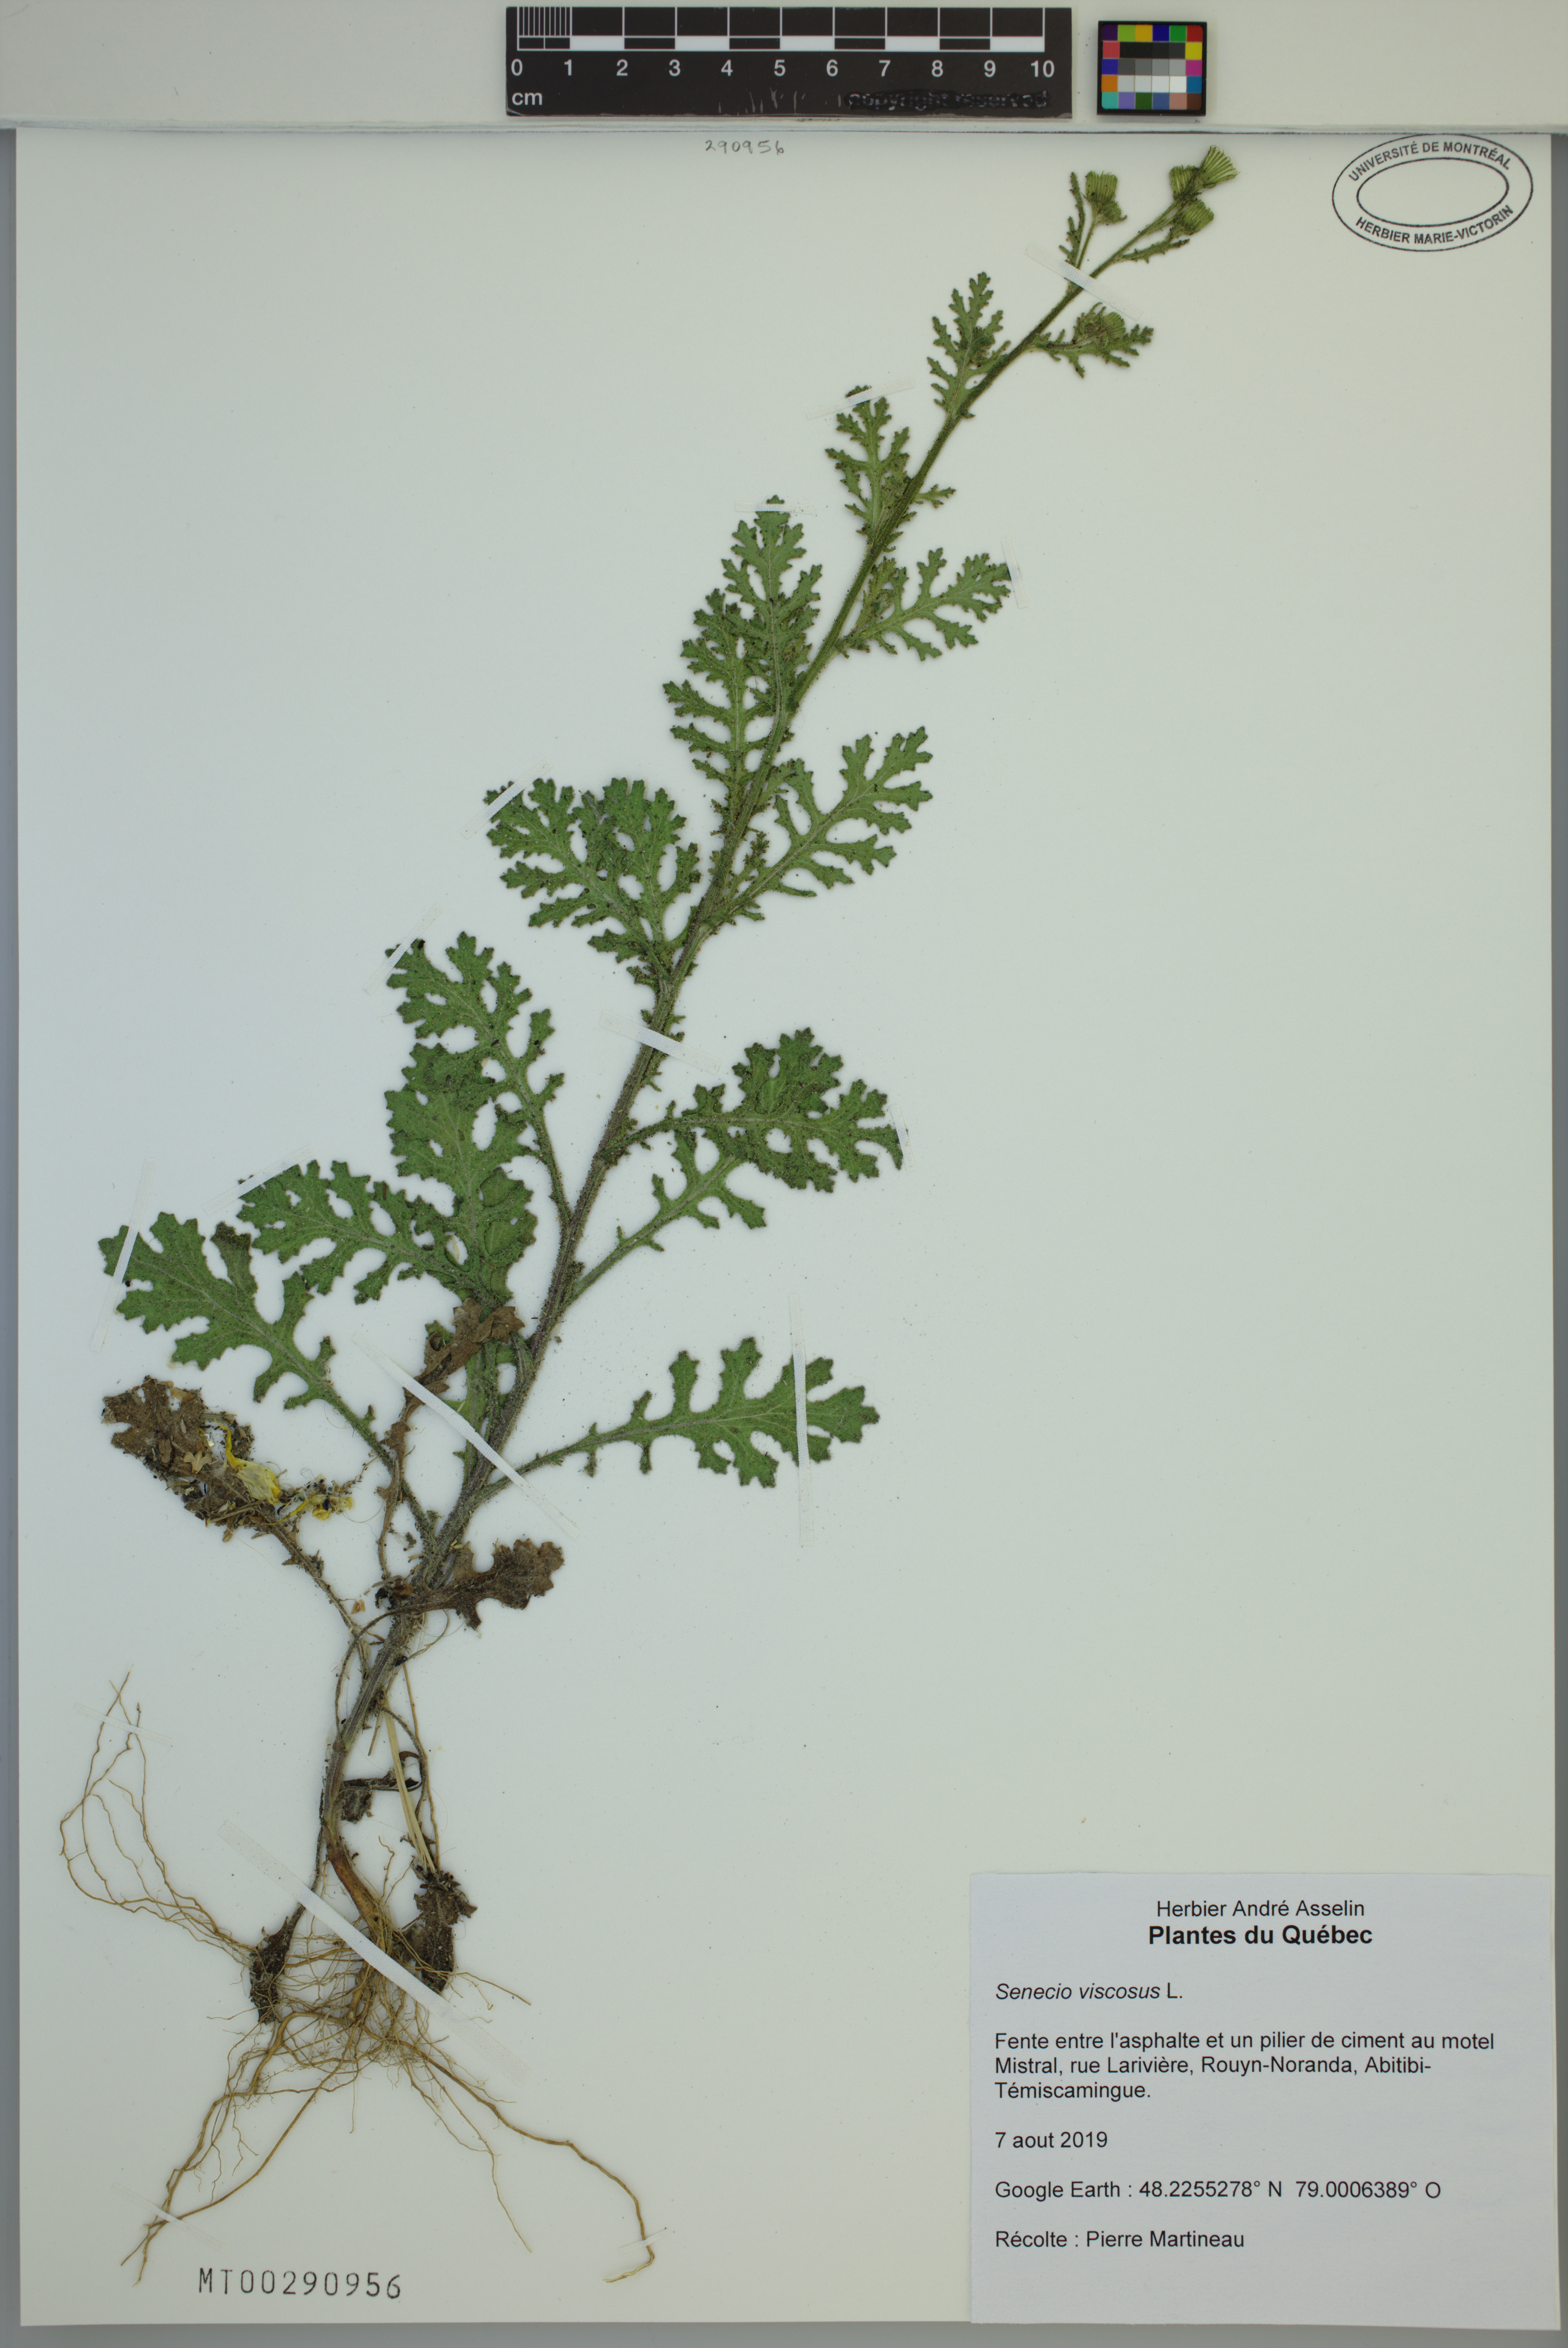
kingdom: Plantae
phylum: Tracheophyta
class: Magnoliopsida
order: Asterales
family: Asteraceae
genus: Senecio
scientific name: Senecio viscosus
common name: Sticky groundsel
